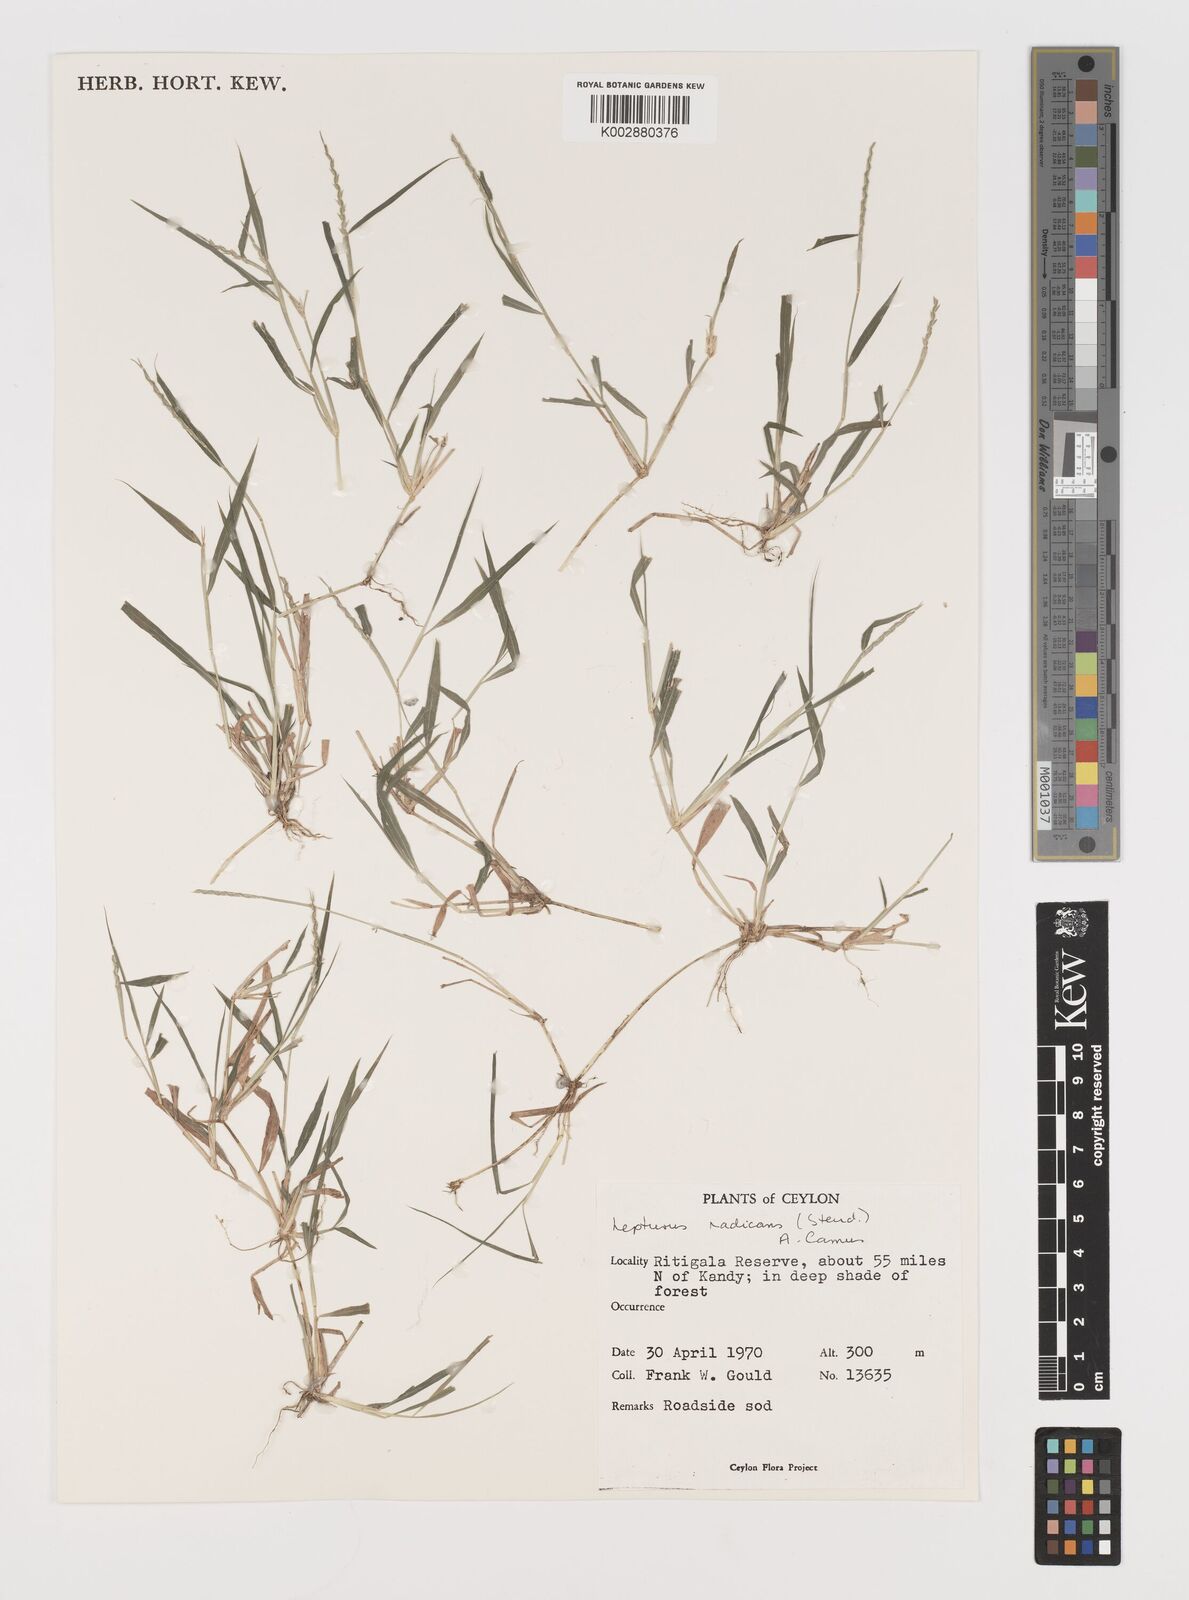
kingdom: Plantae
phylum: Tracheophyta
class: Liliopsida
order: Poales
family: Poaceae
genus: Lepturus
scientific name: Lepturus radicans
